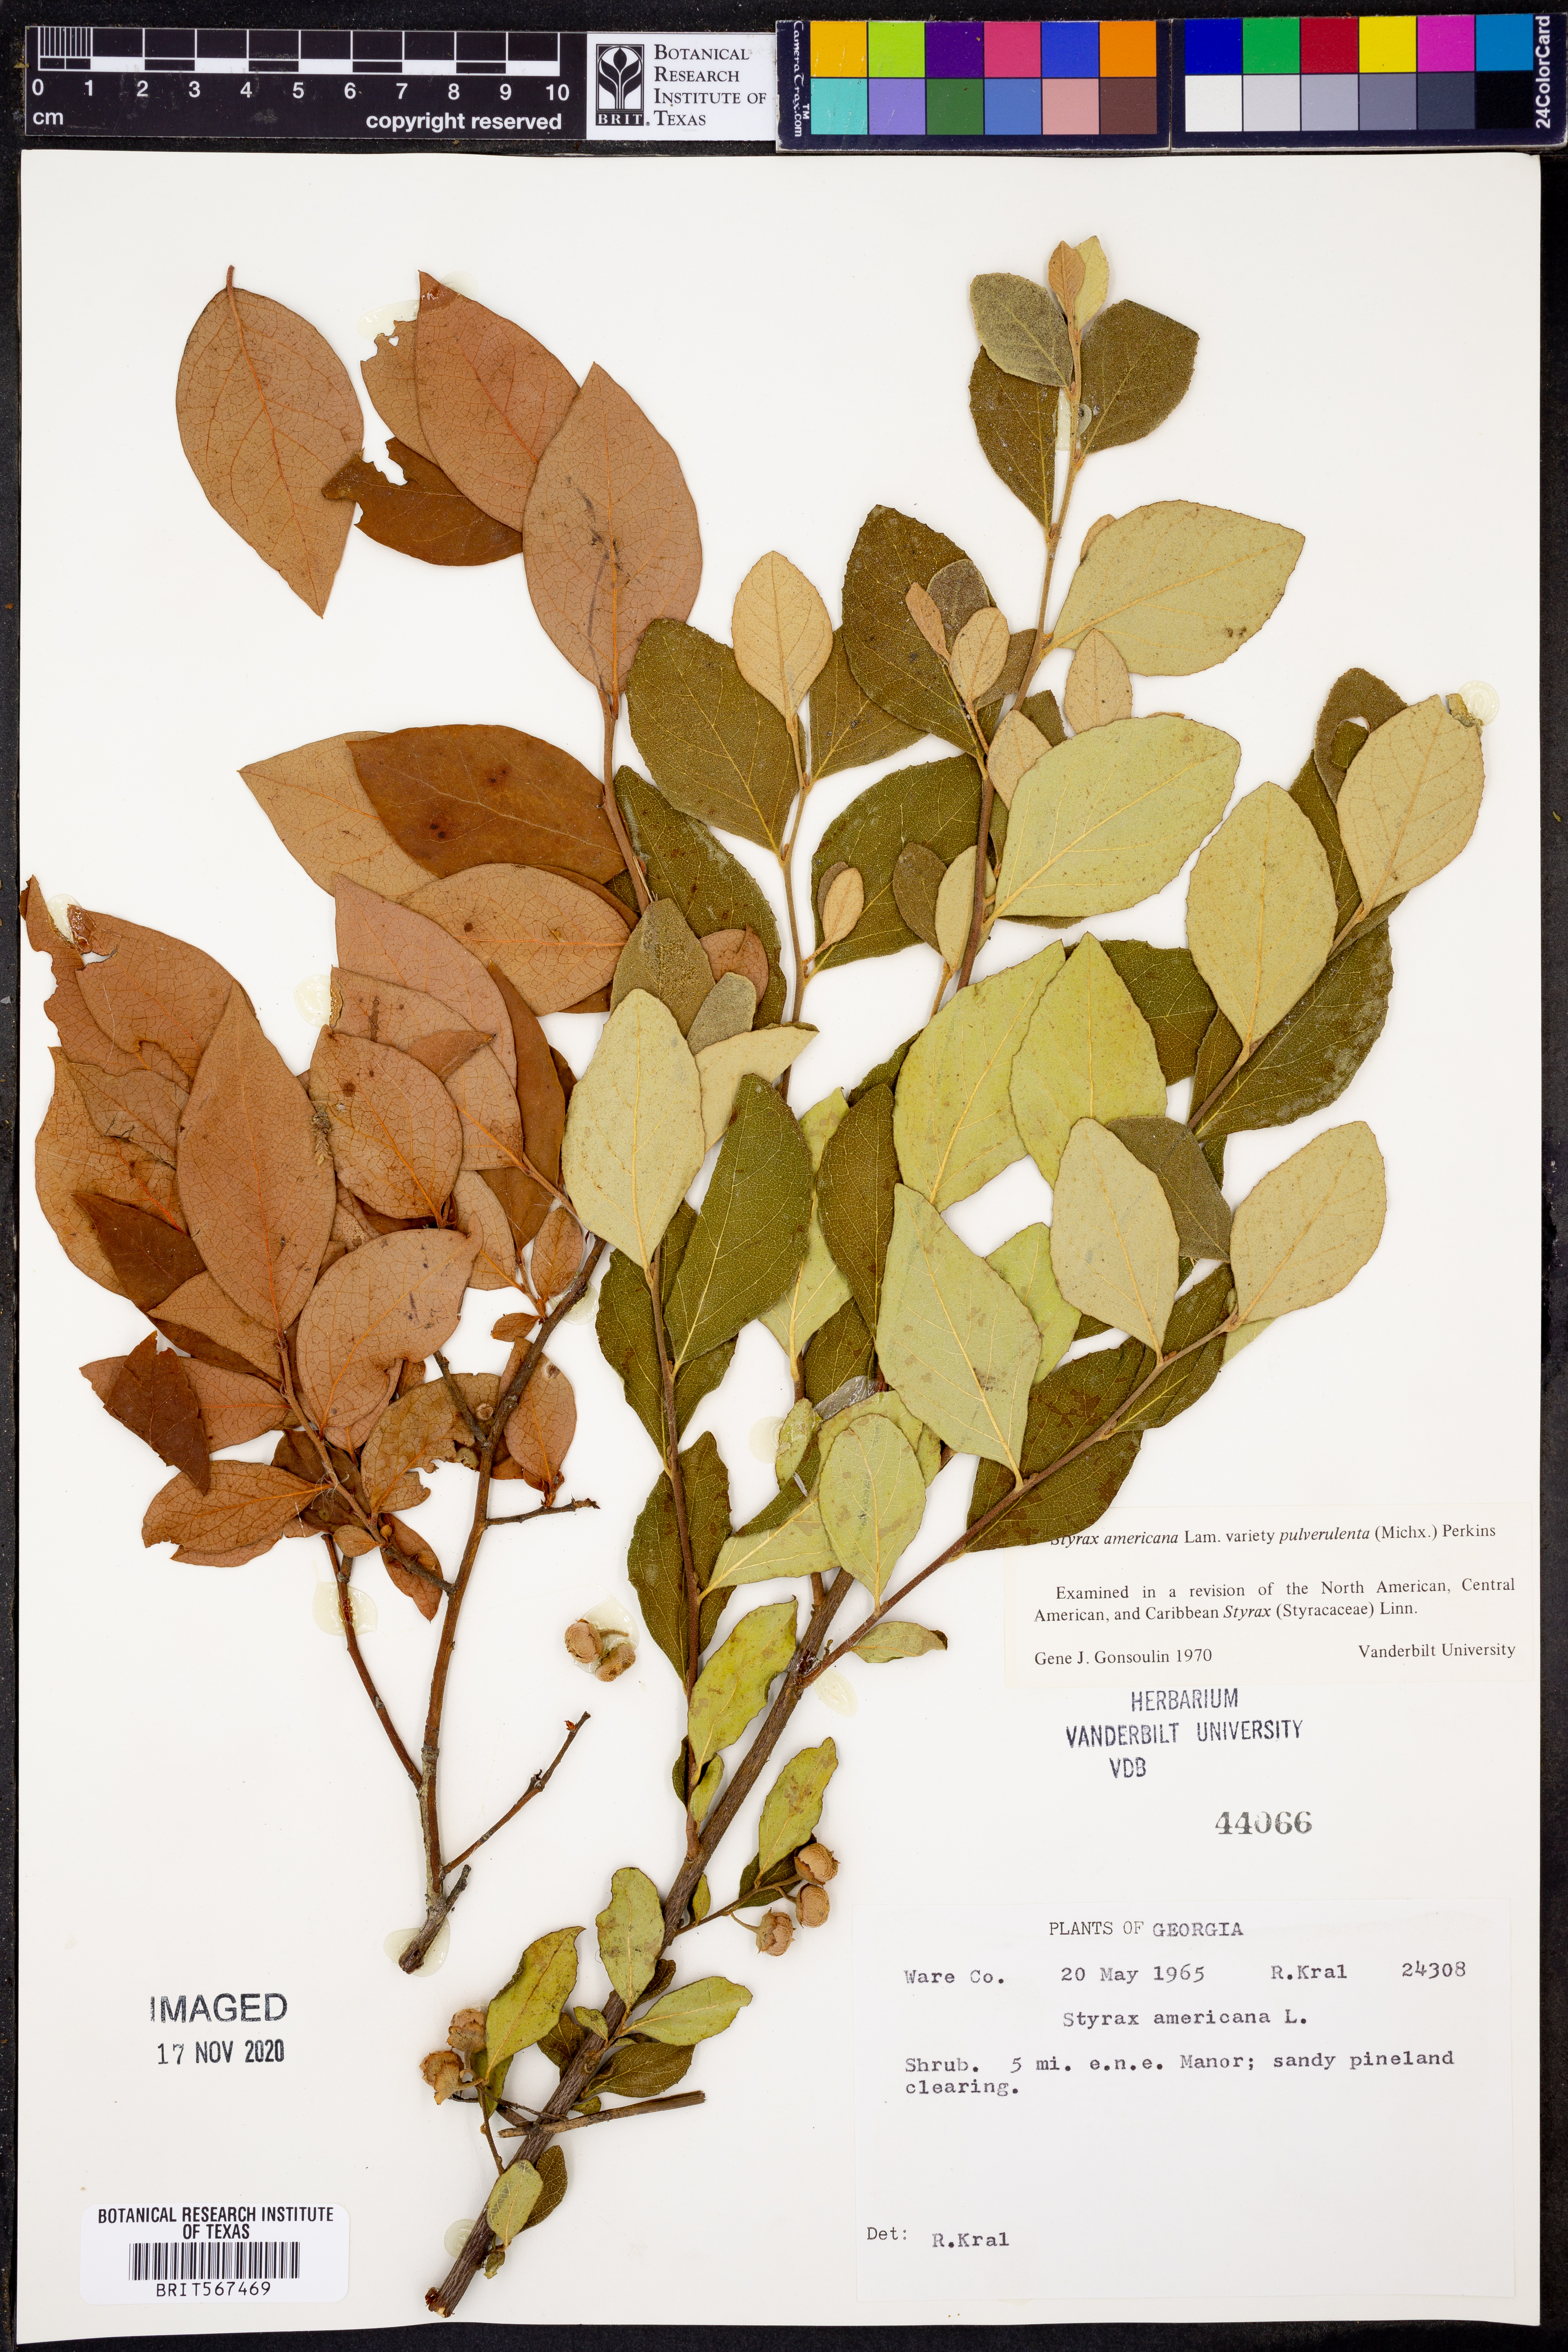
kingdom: Plantae
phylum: Tracheophyta
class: Magnoliopsida
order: Ericales
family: Styracaceae
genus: Styrax
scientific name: Styrax americanus
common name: American snowbell
